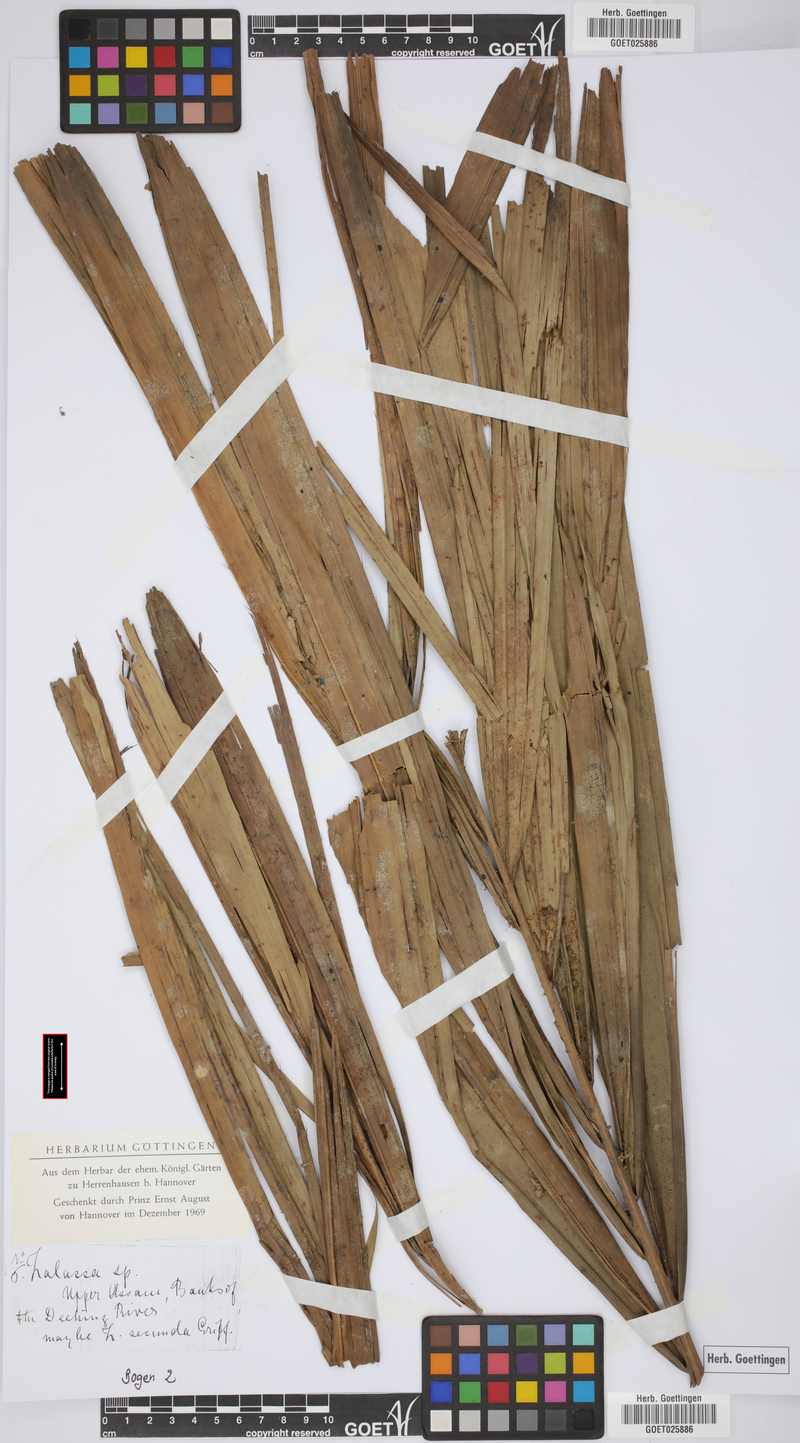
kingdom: Plantae
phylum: Tracheophyta
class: Liliopsida
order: Arecales
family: Arecaceae
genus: Salacca
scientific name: Salacca
